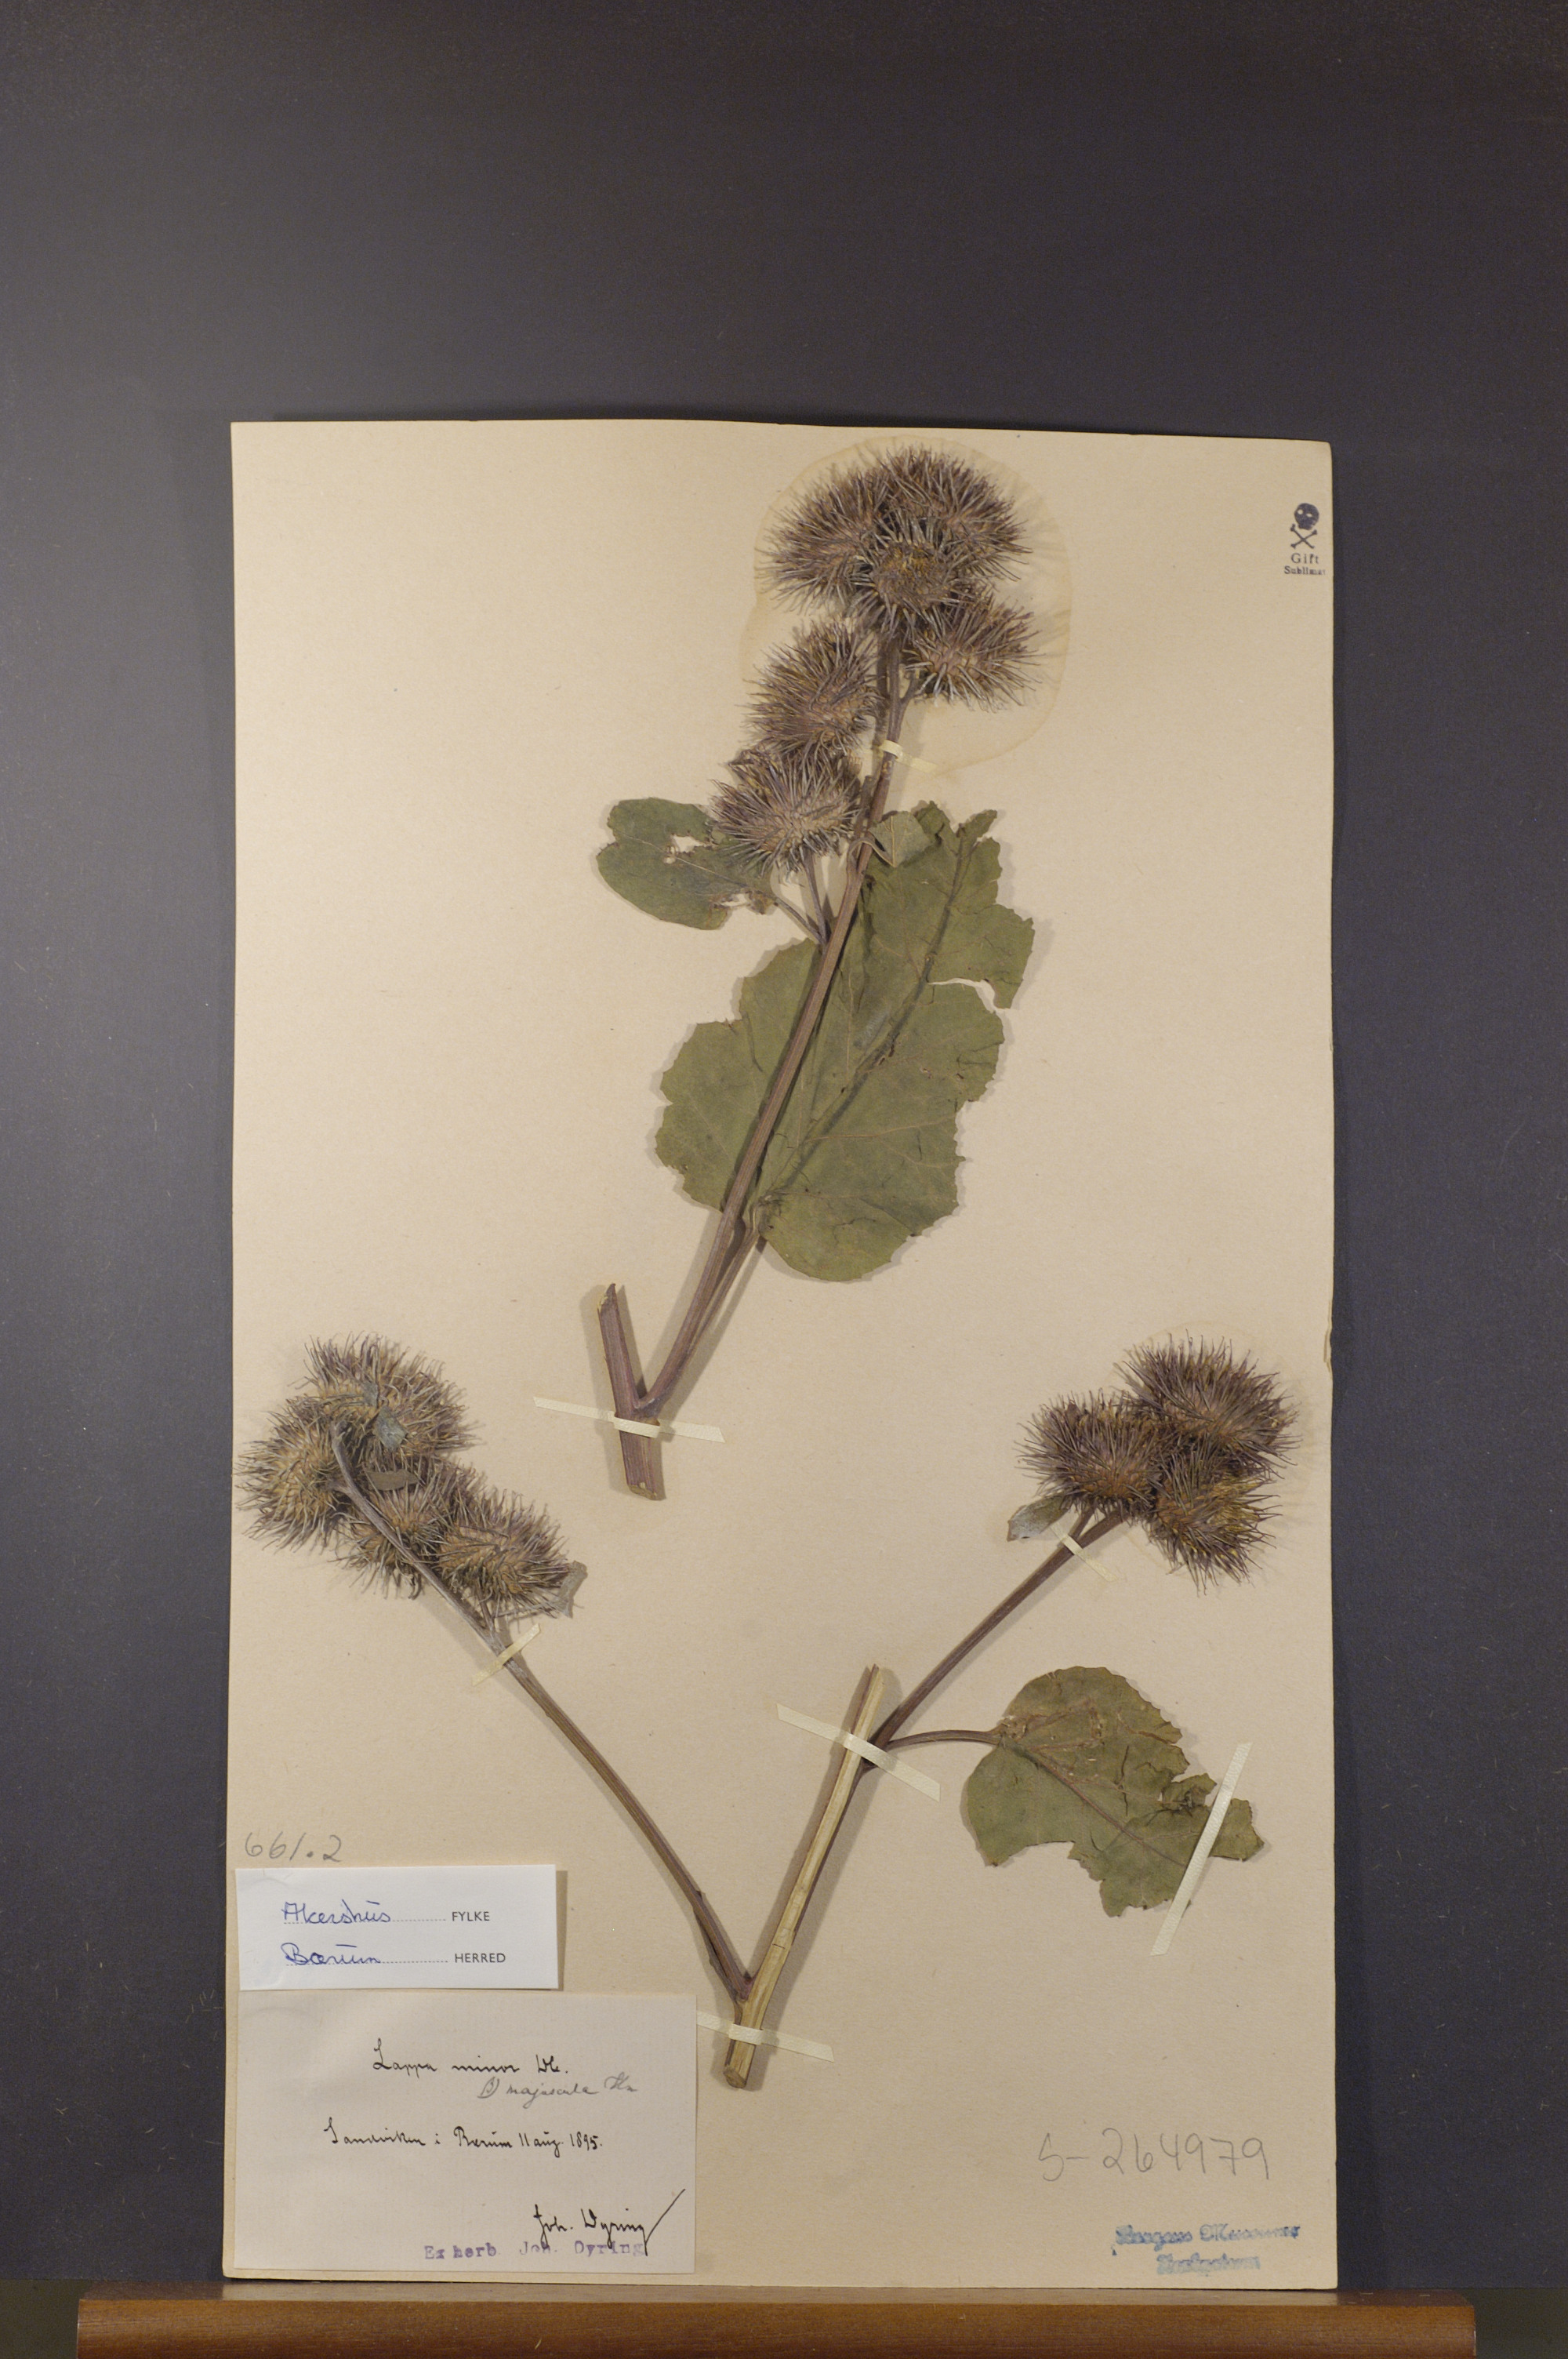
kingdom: Plantae
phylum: Tracheophyta
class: Magnoliopsida
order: Asterales
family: Asteraceae
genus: Arctium
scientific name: Arctium minus
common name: Lesser burdock
